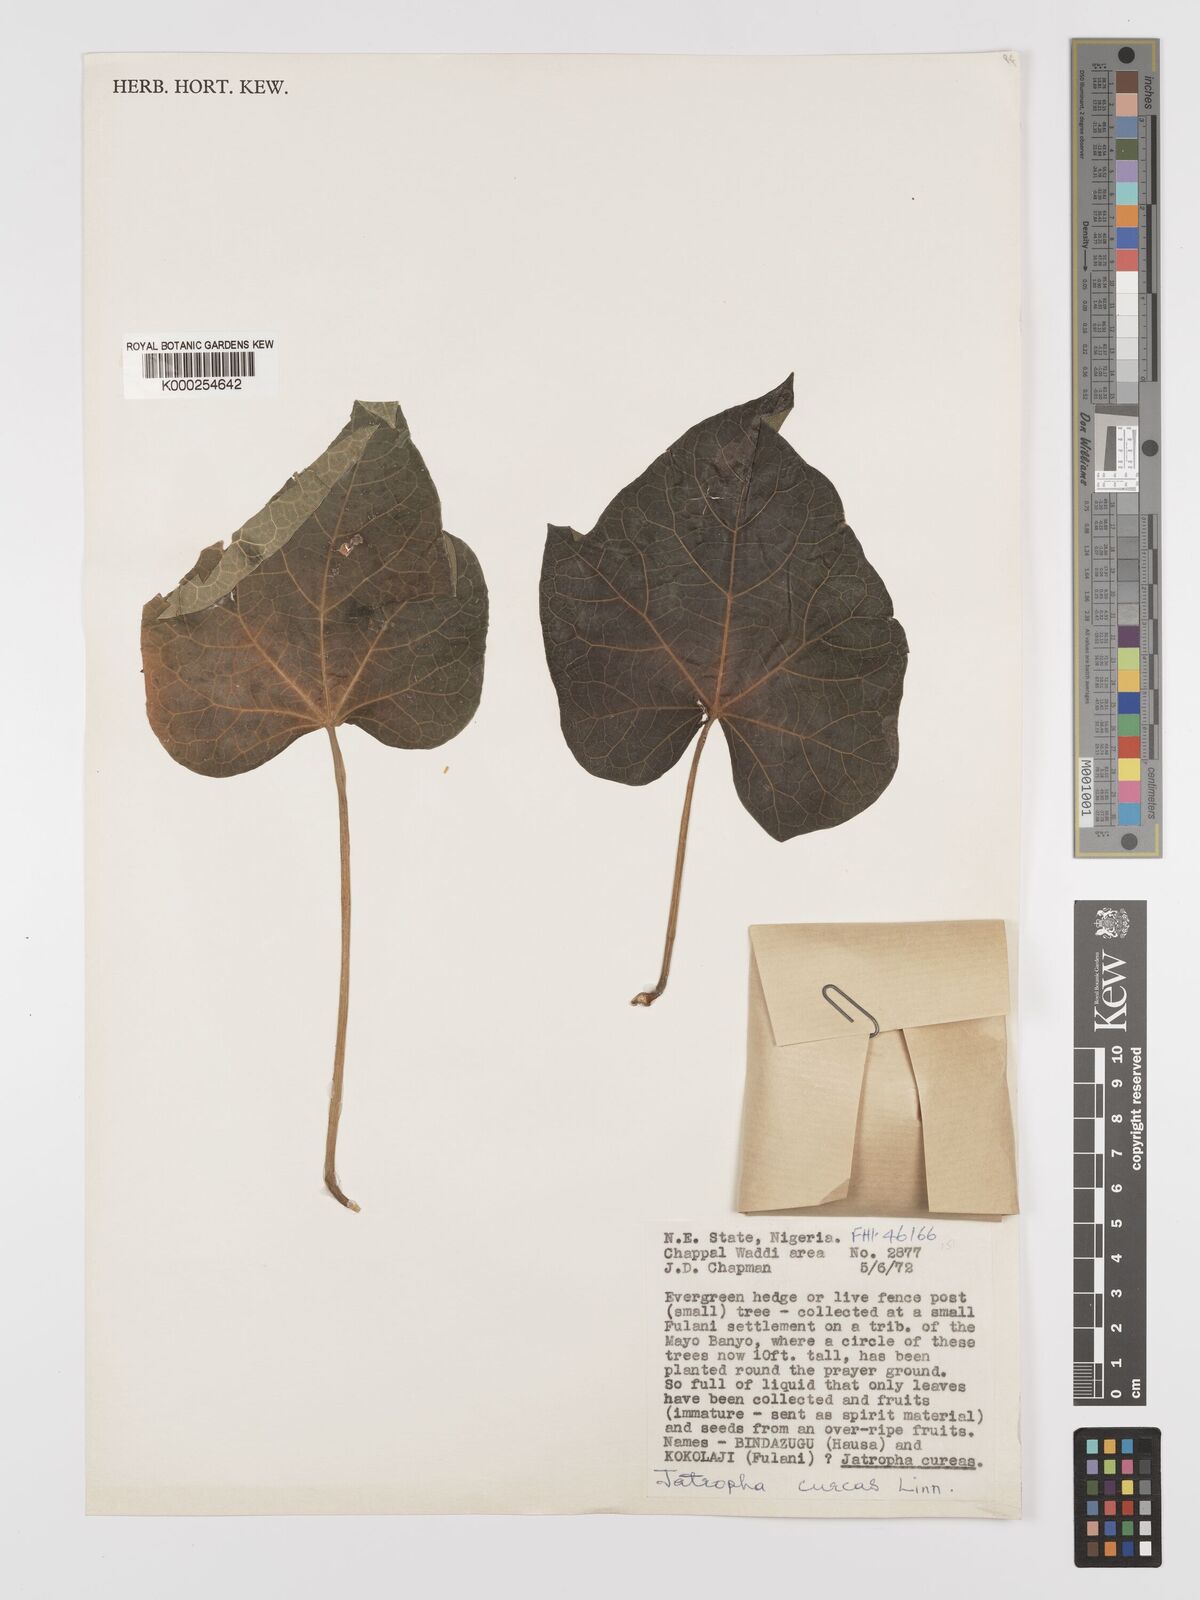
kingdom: Plantae
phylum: Tracheophyta
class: Magnoliopsida
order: Malpighiales
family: Euphorbiaceae
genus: Jatropha
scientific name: Jatropha curcas
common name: Barbados nut
